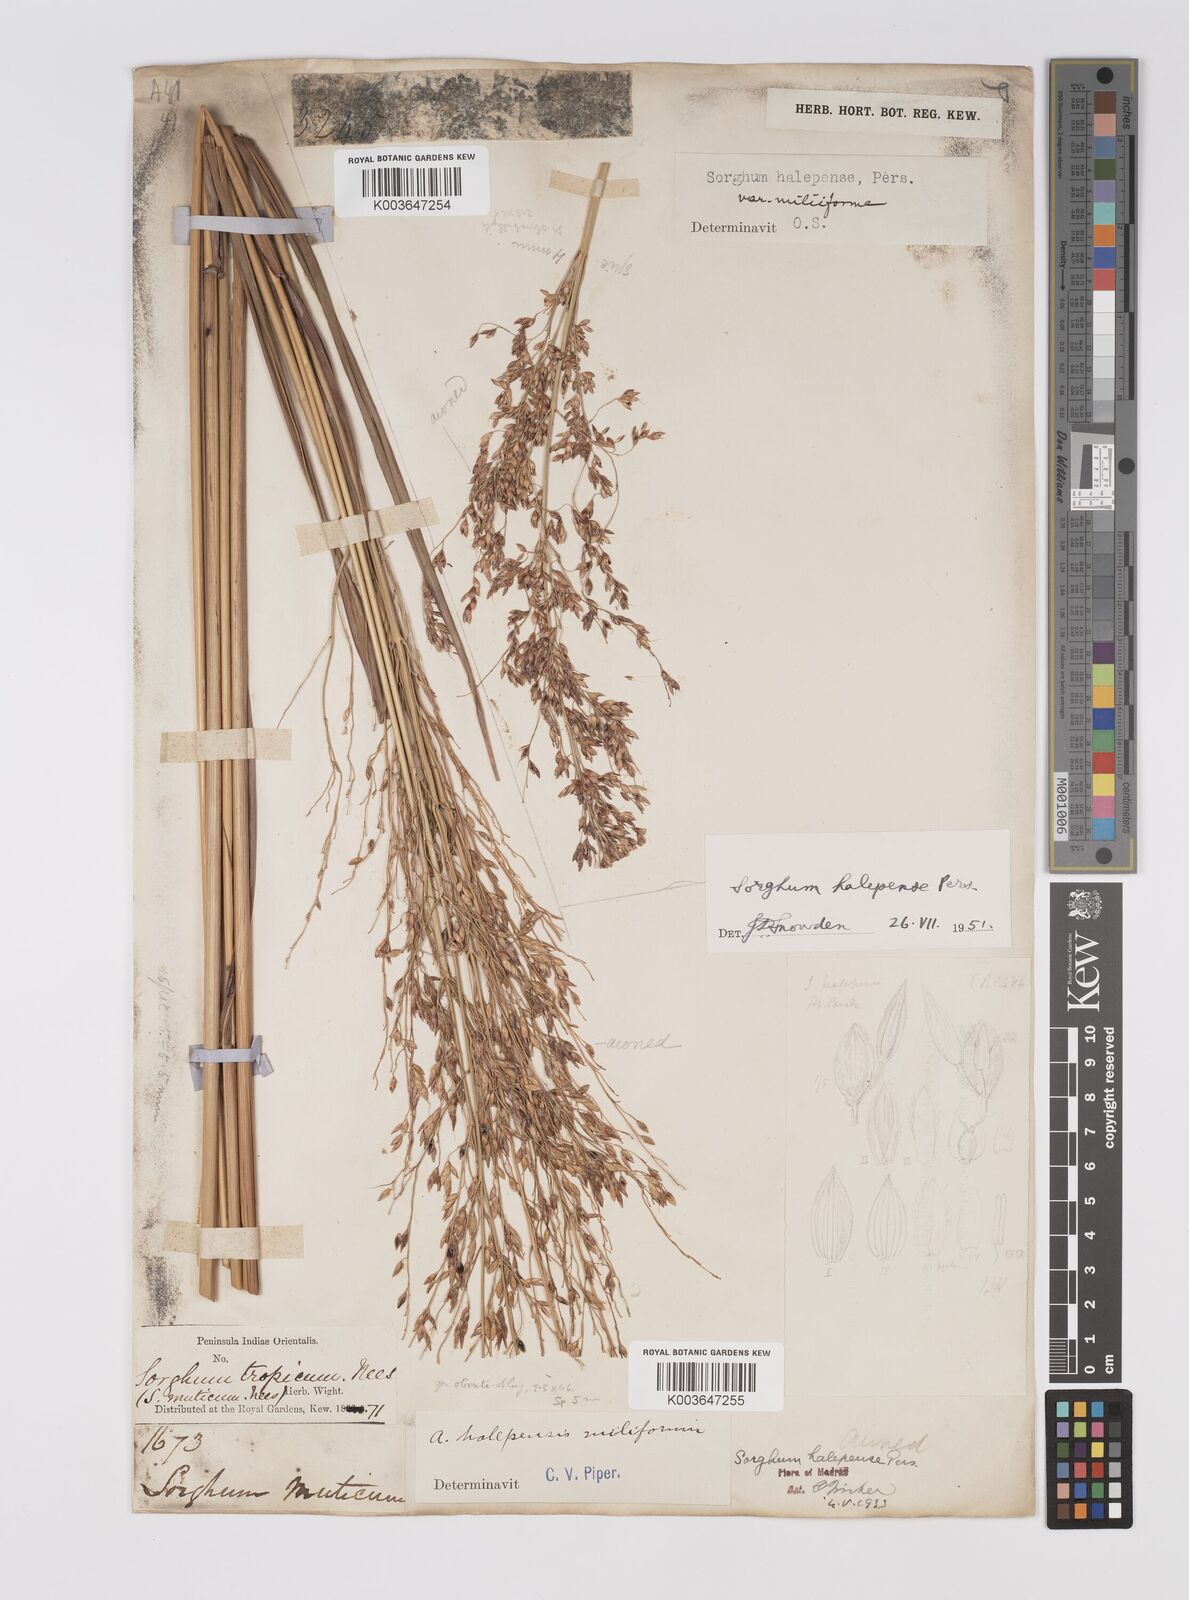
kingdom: Plantae
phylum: Tracheophyta
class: Liliopsida
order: Poales
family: Poaceae
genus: Sorghum
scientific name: Sorghum halepense
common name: Johnson-grass
